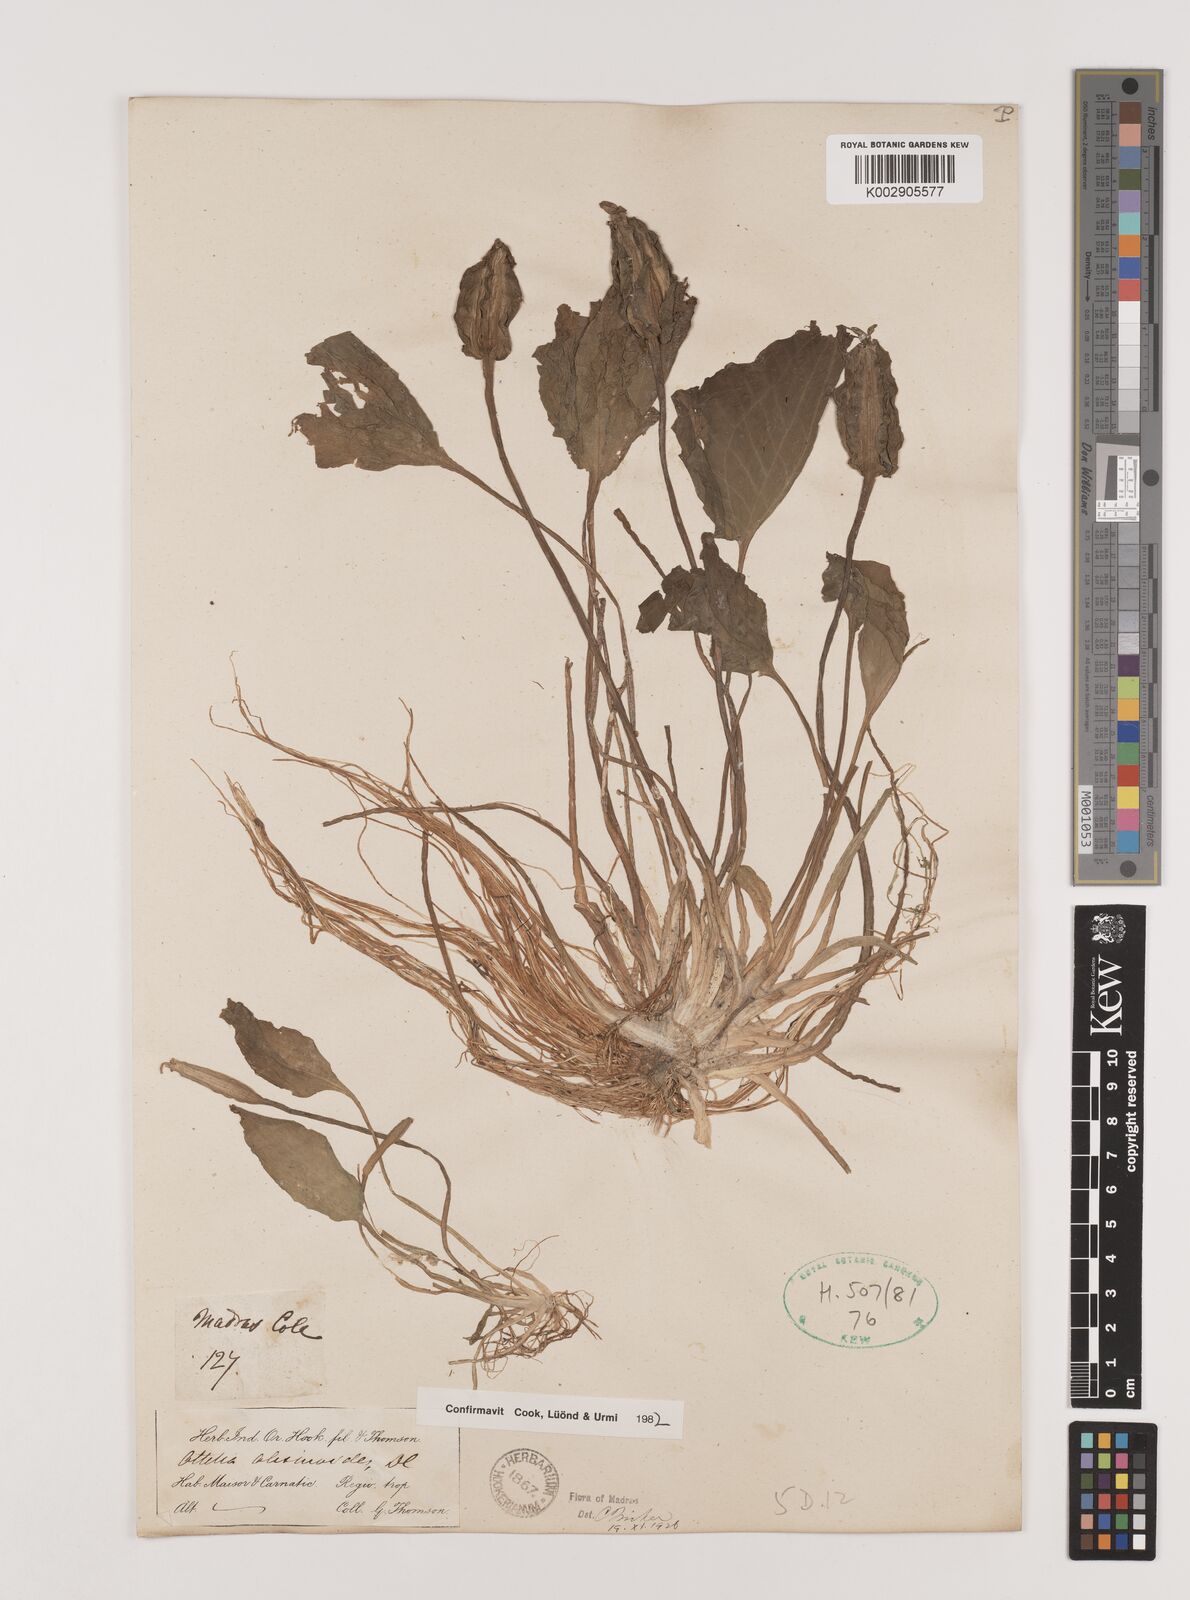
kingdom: Plantae
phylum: Tracheophyta
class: Liliopsida
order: Alismatales
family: Hydrocharitaceae
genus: Ottelia
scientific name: Ottelia alismoides
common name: Duck-lettuce
